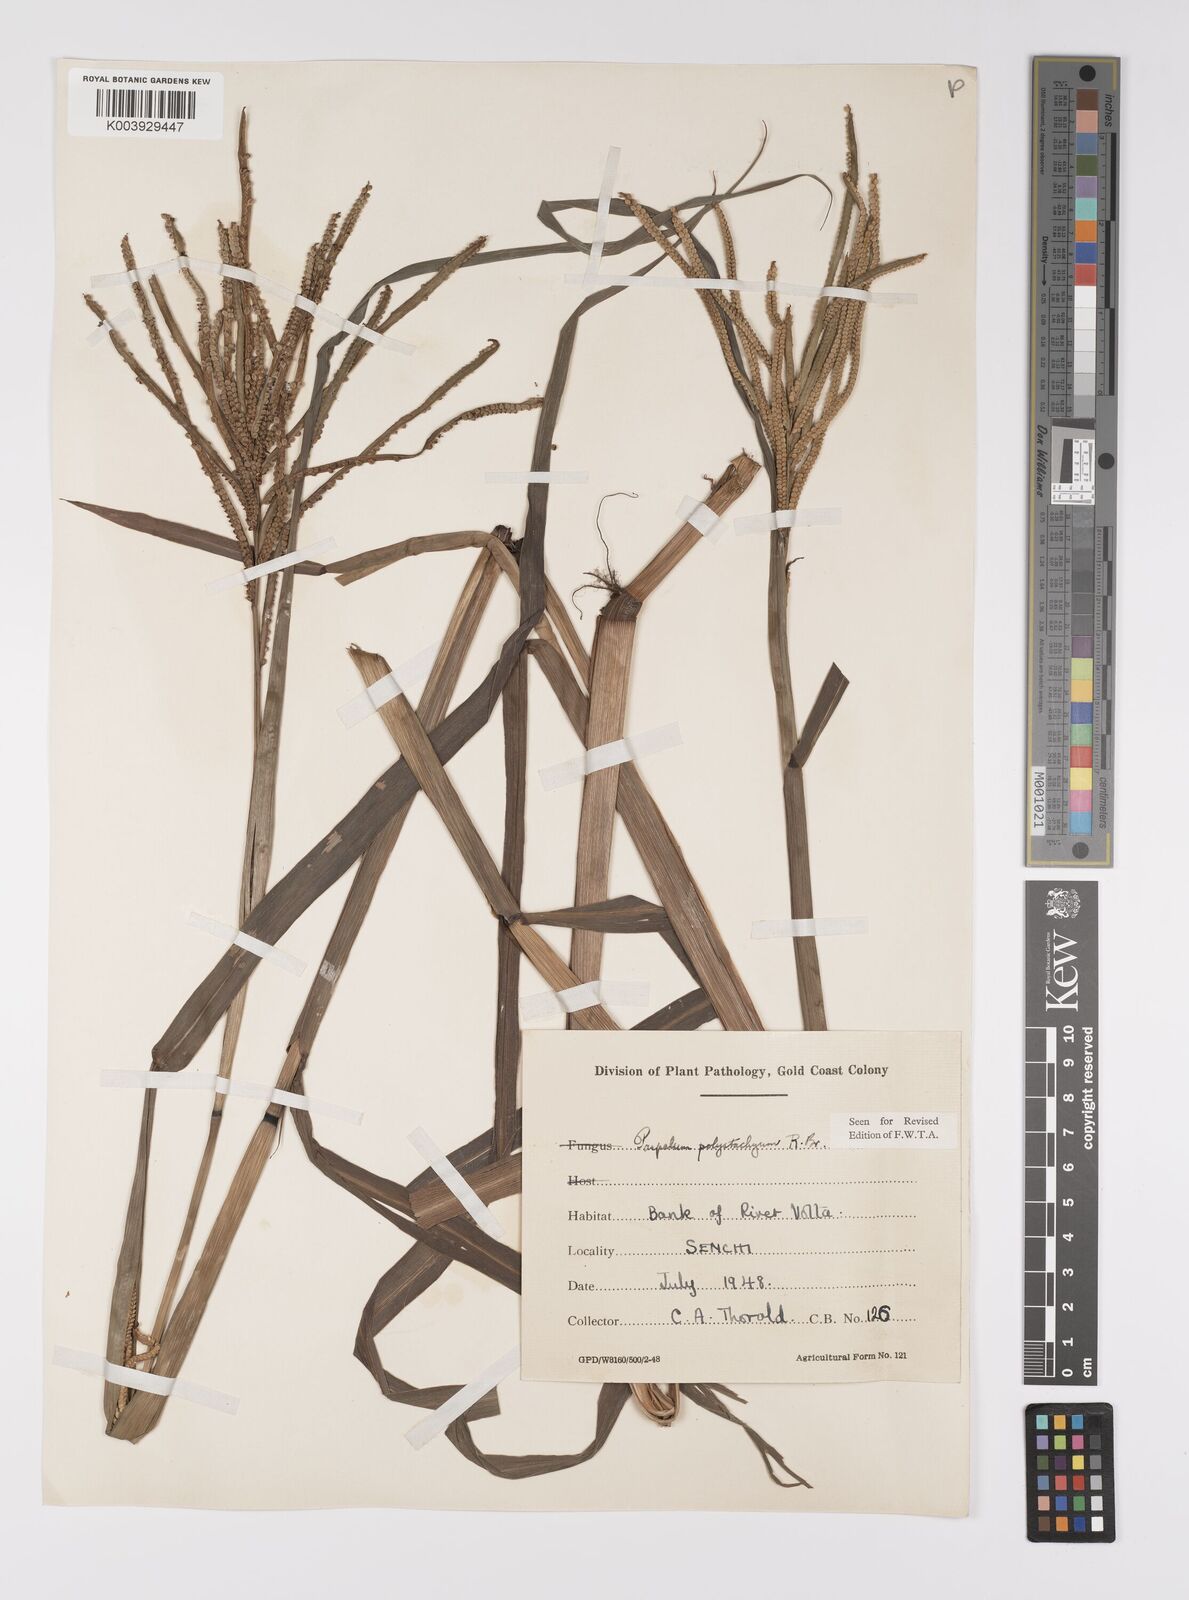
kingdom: Plantae
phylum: Tracheophyta
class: Liliopsida
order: Poales
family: Poaceae
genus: Paspalum
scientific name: Paspalum scrobiculatum
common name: Kodo millet
